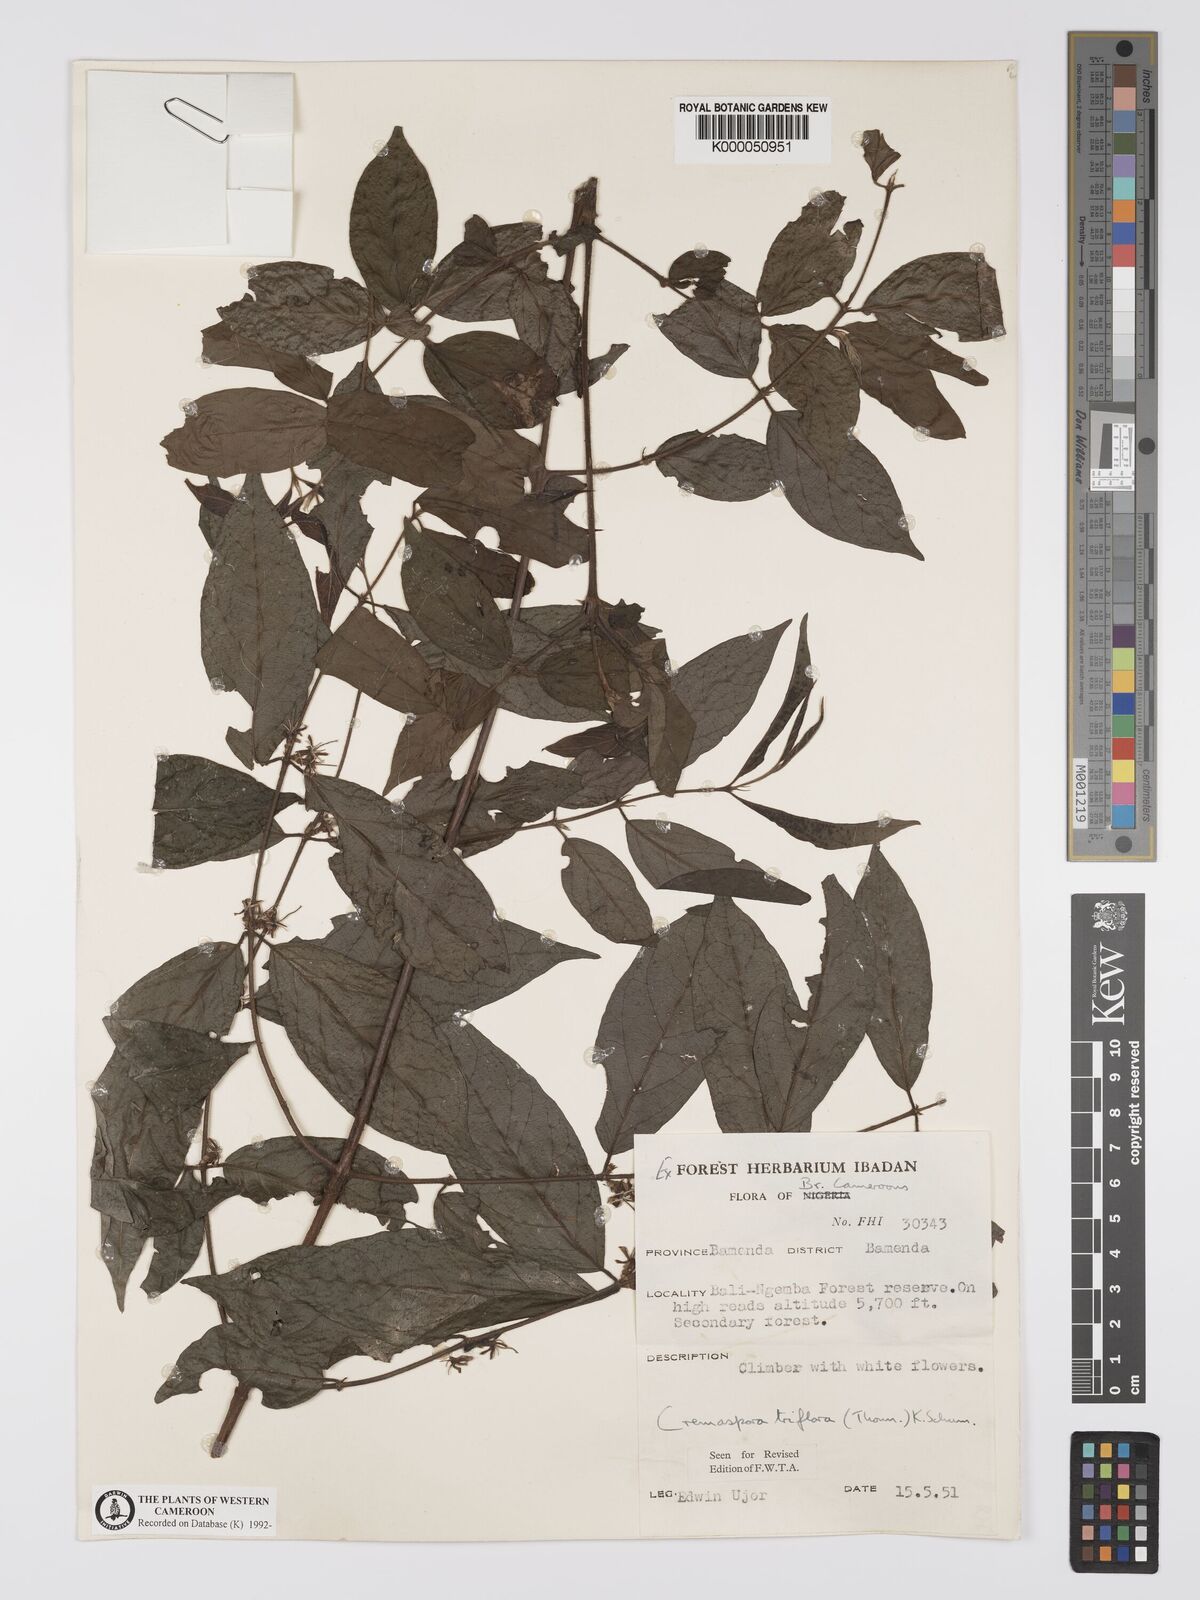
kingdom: Plantae
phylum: Tracheophyta
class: Magnoliopsida
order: Gentianales
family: Rubiaceae
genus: Cremaspora
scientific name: Cremaspora triflora
